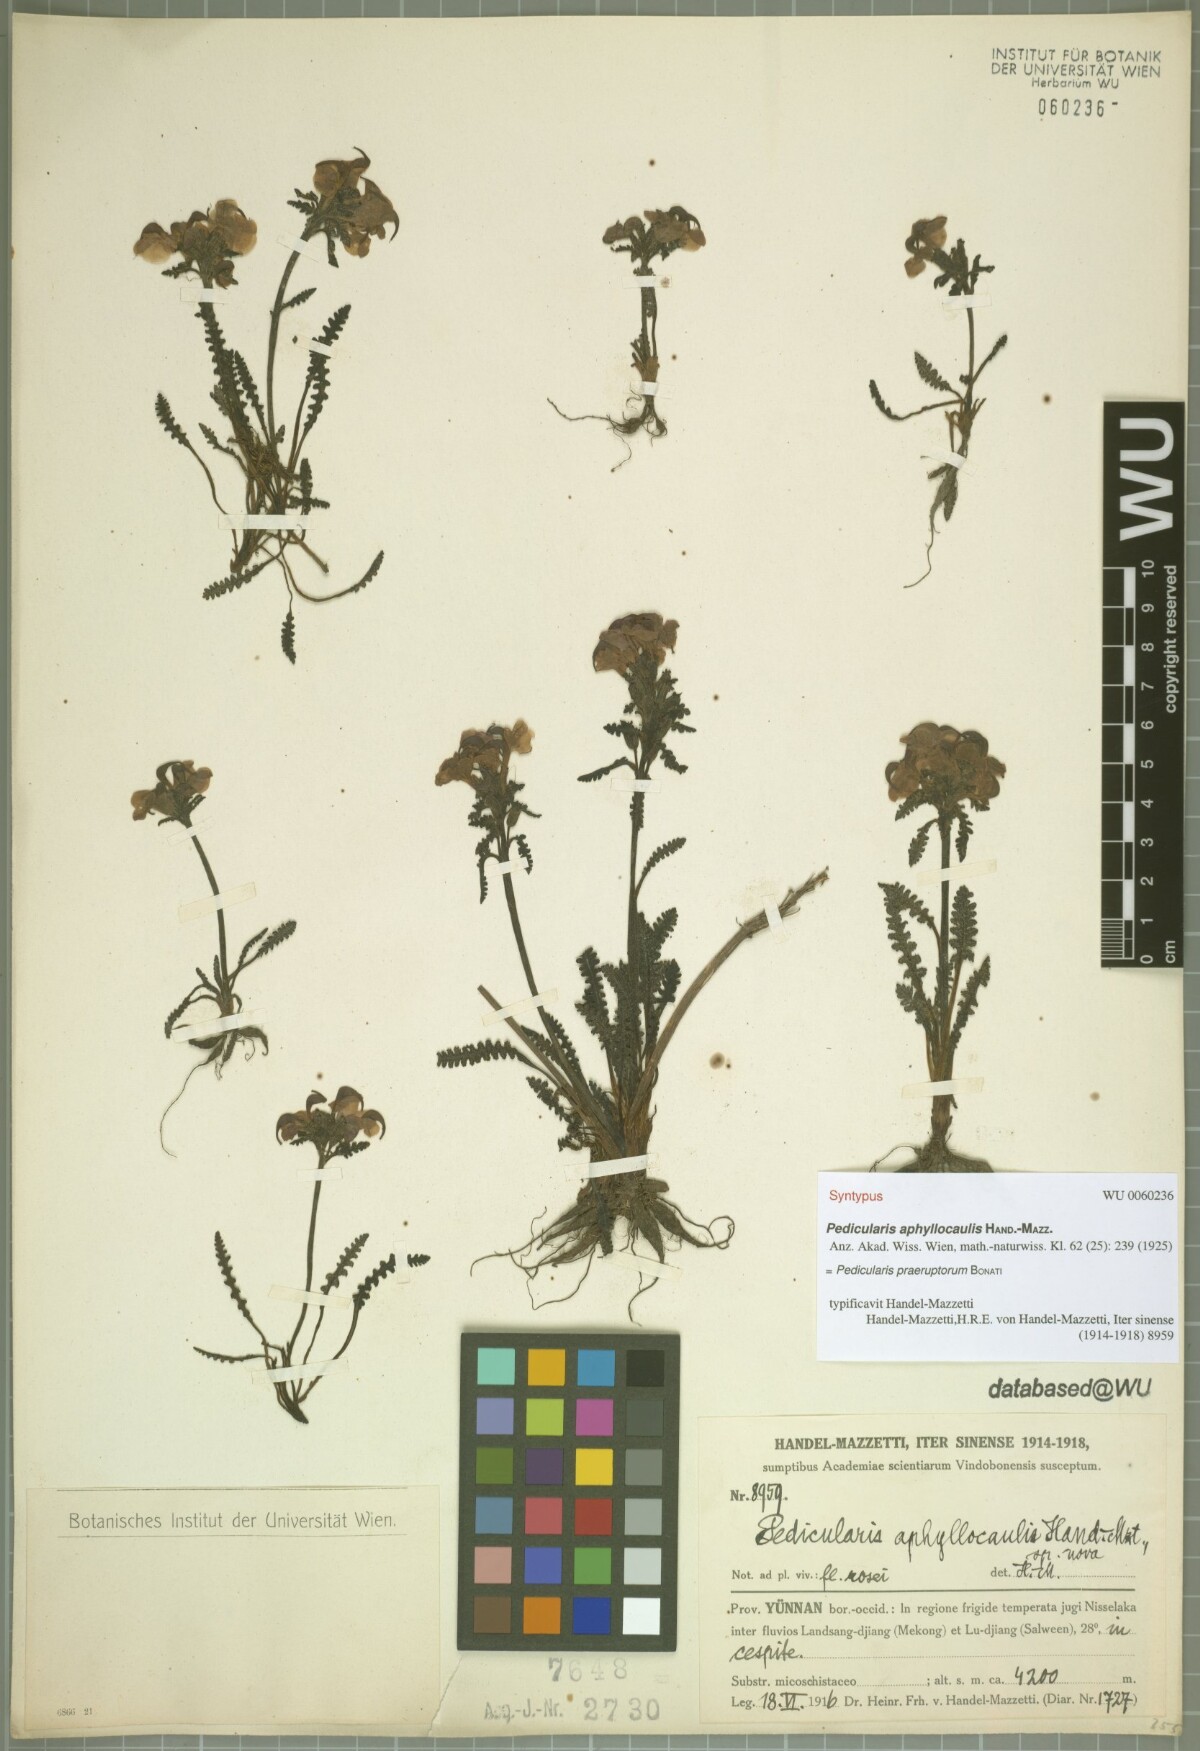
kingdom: Plantae
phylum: Tracheophyta
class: Magnoliopsida
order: Lamiales
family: Orobanchaceae
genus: Pedicularis
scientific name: Pedicularis praeruptorum
